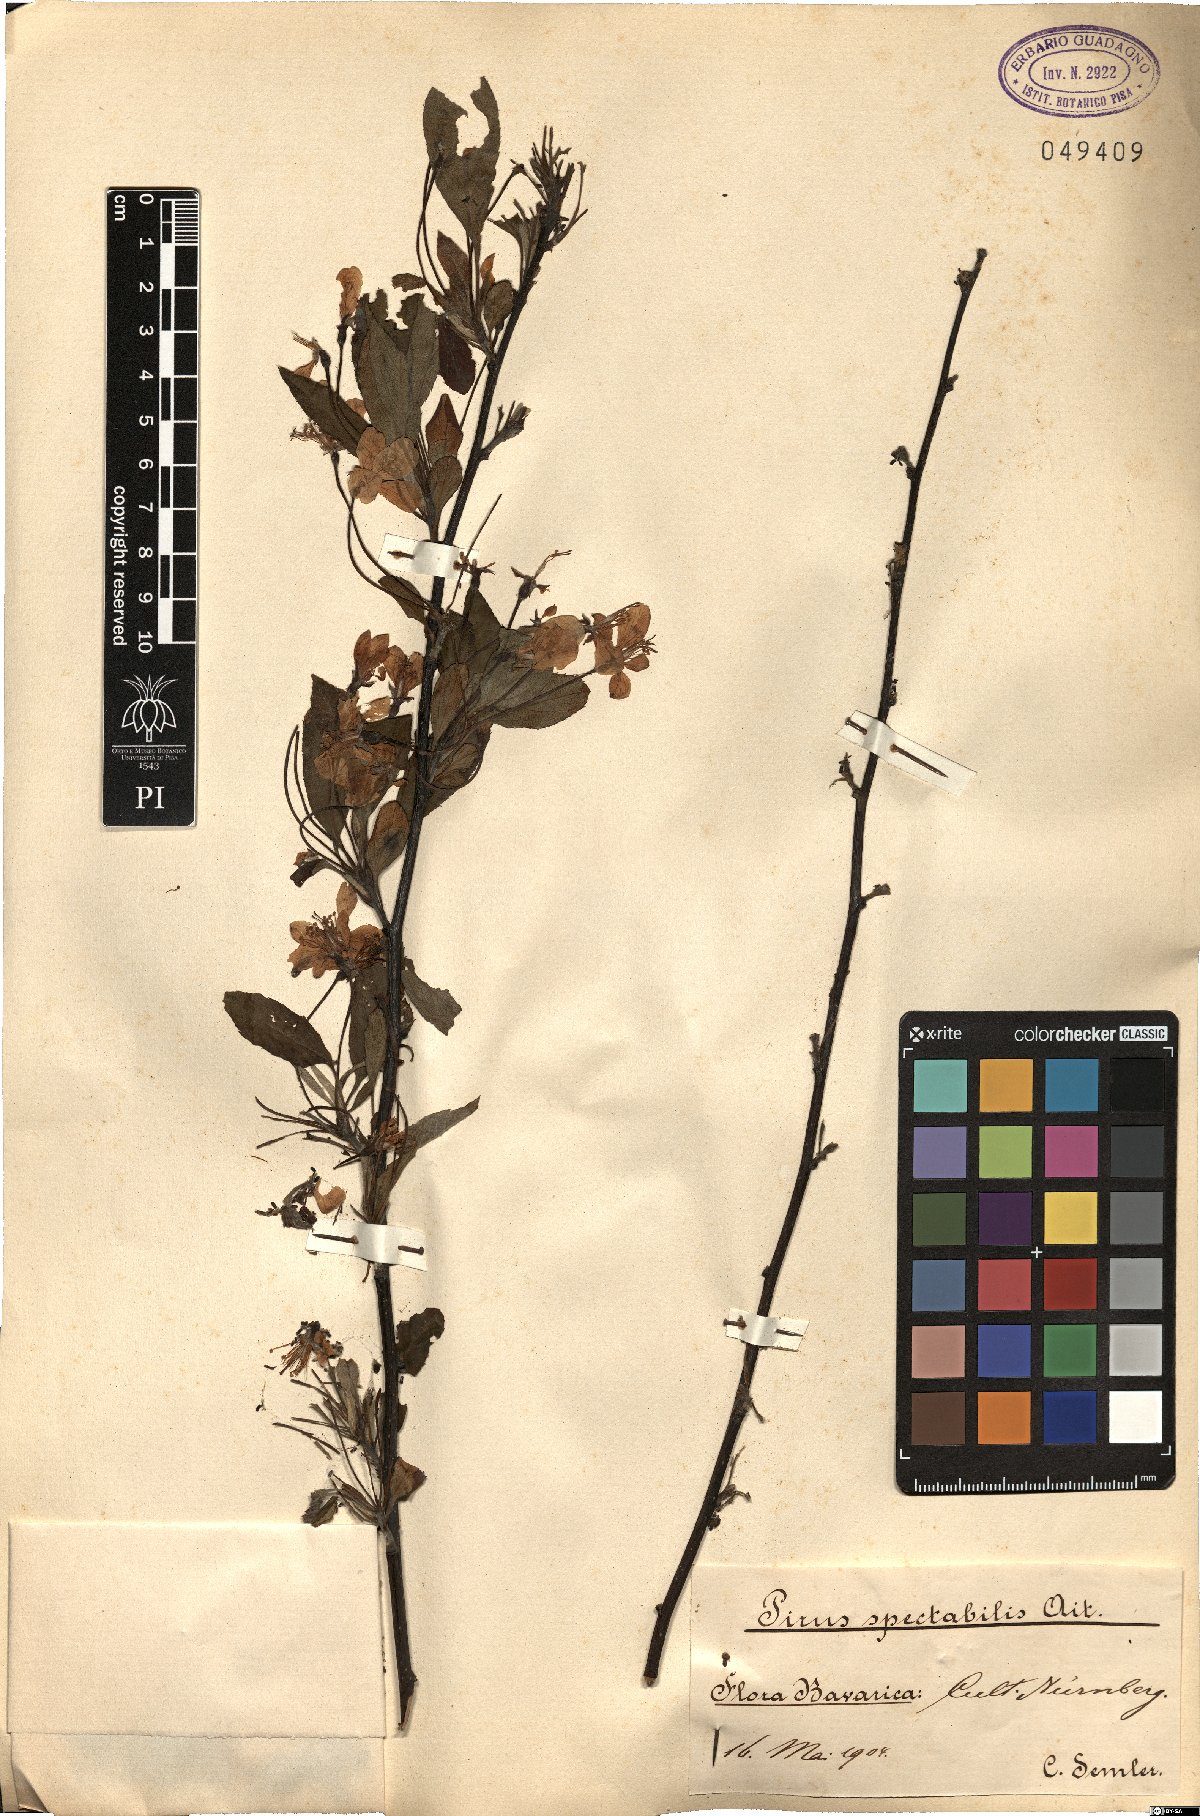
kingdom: Plantae
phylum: Tracheophyta
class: Magnoliopsida
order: Rosales
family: Rosaceae
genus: Malus
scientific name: Malus spectabilis
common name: Asiatic apple
